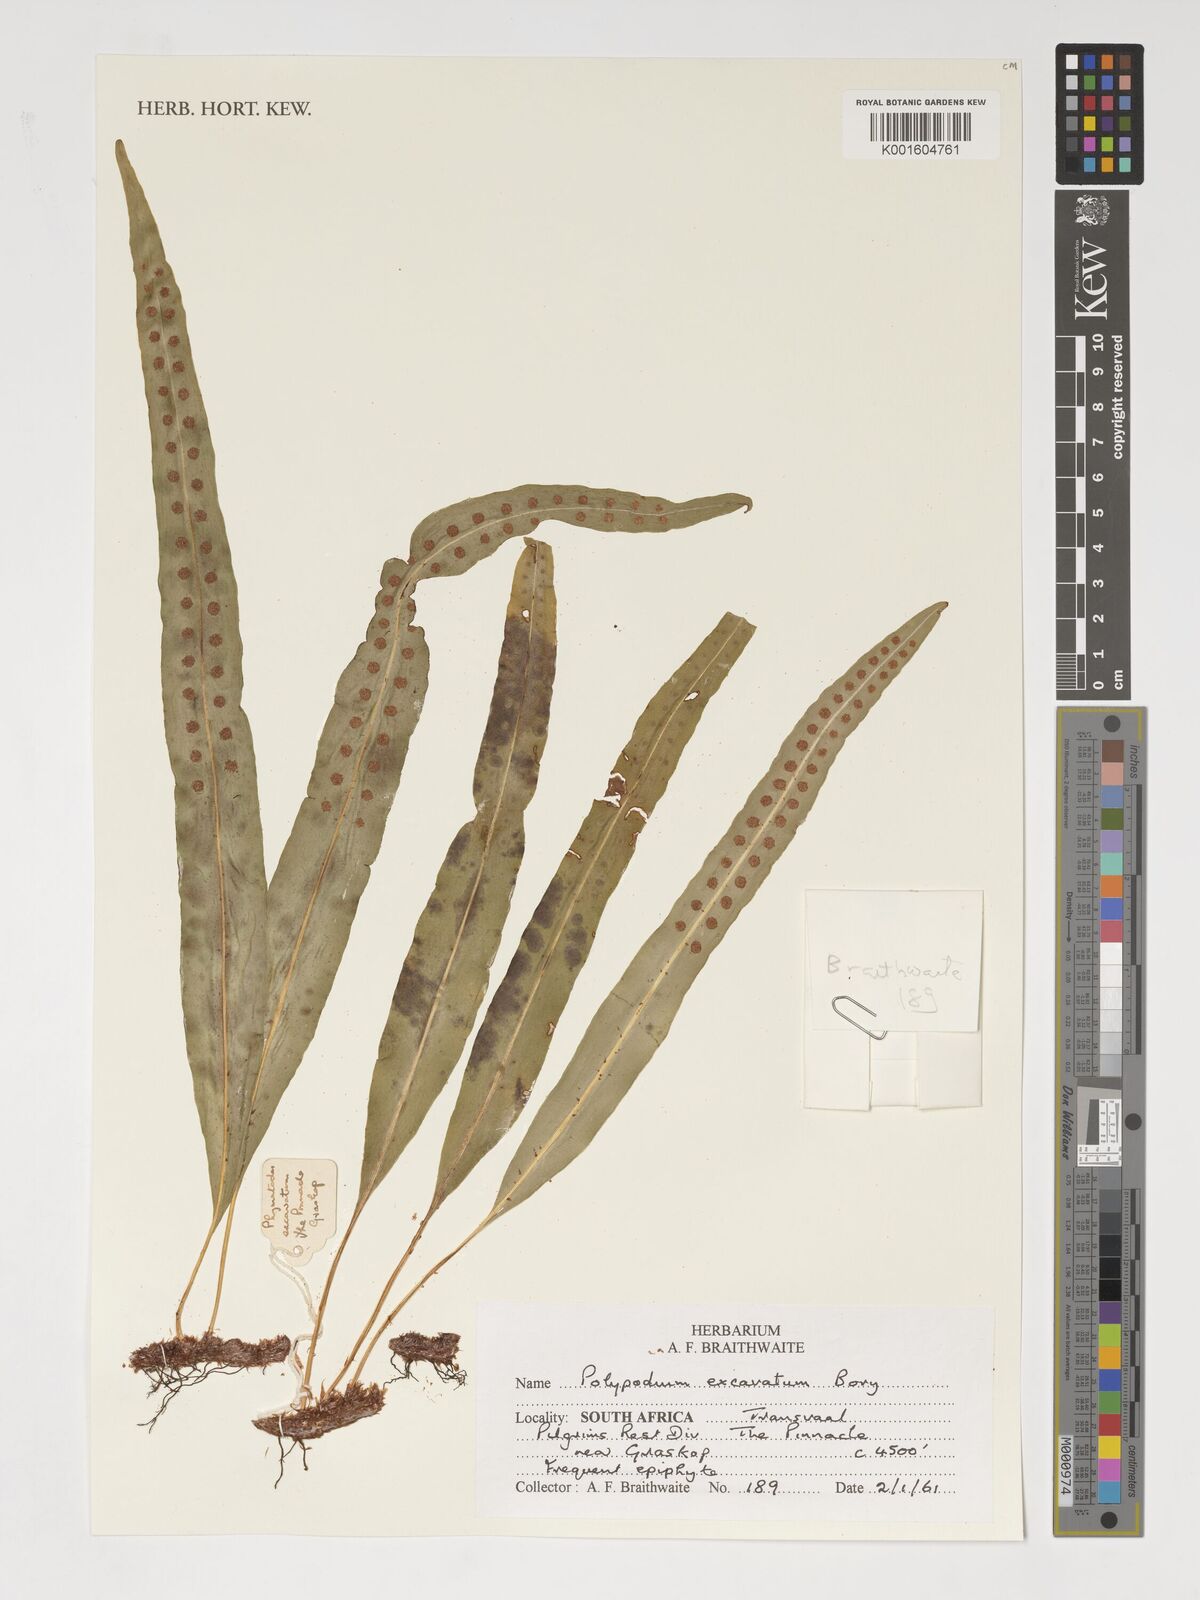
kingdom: Plantae
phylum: Tracheophyta
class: Polypodiopsida
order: Polypodiales
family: Polypodiaceae
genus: Lepisorus
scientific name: Lepisorus excavatus
